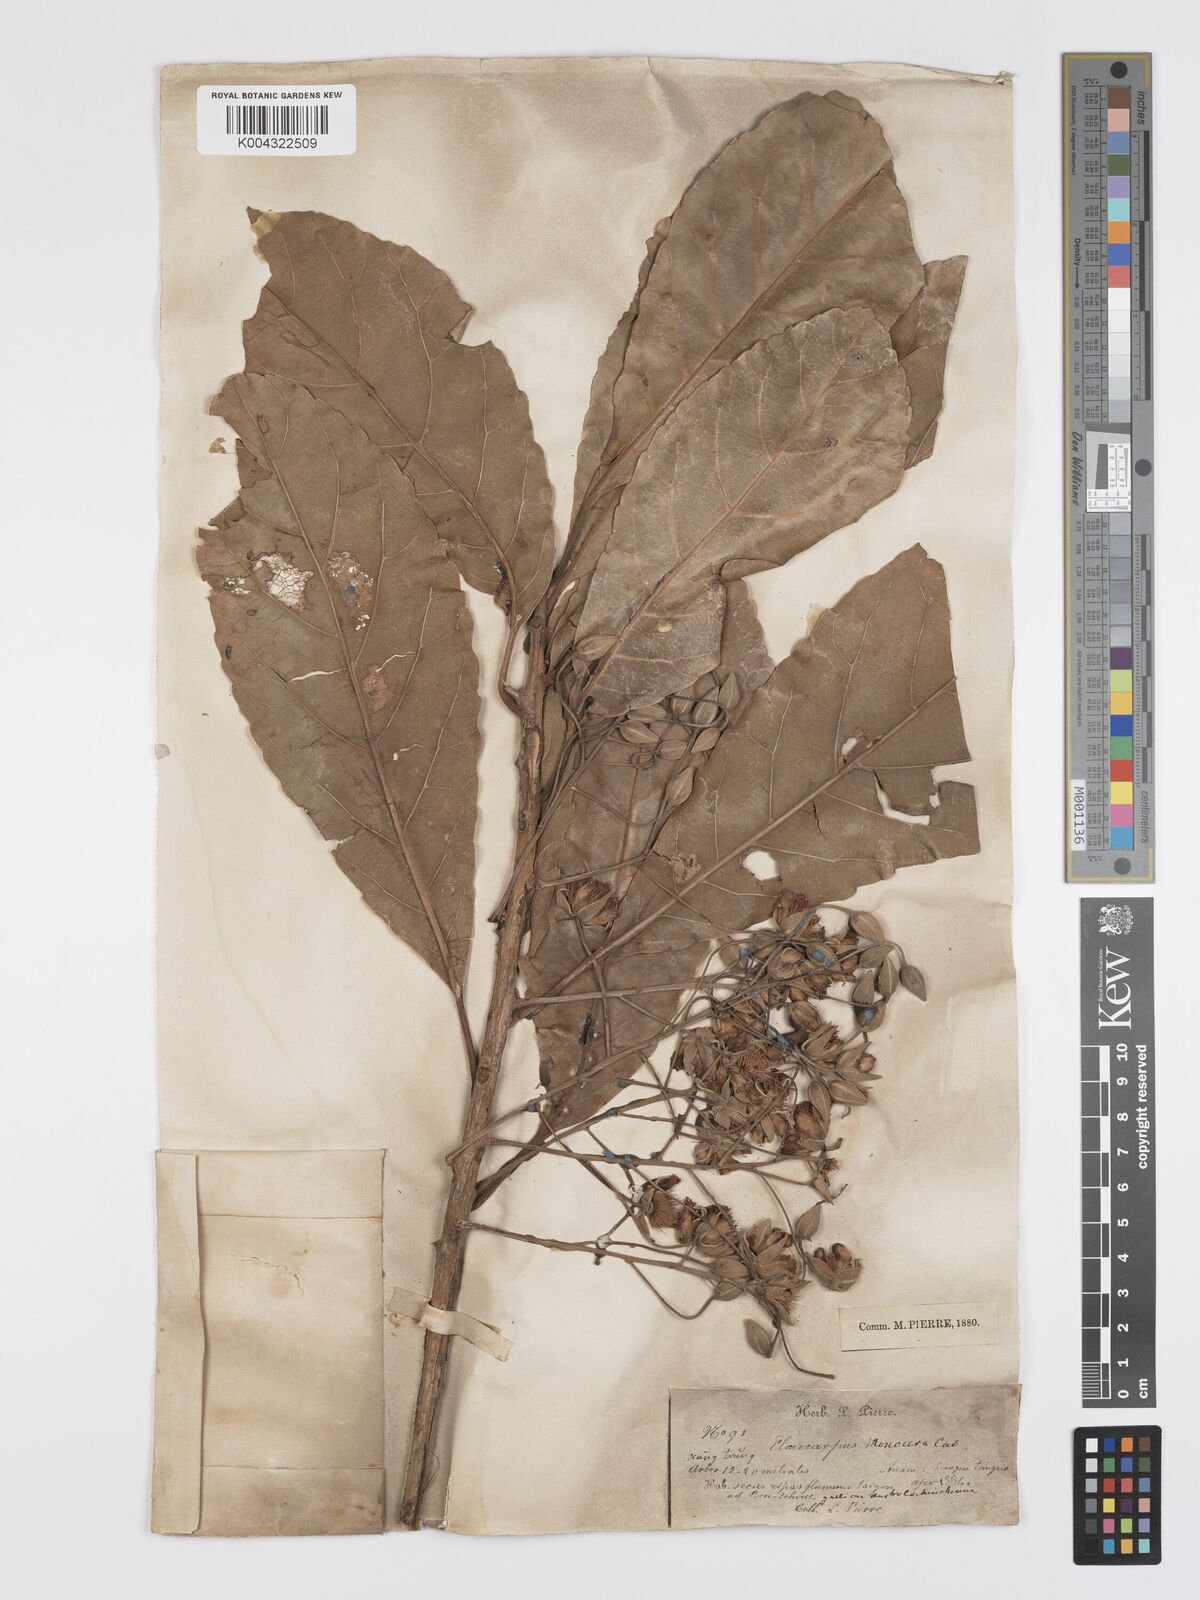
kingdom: Plantae
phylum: Tracheophyta
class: Magnoliopsida
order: Oxalidales
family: Elaeocarpaceae
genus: Elaeocarpus
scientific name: Elaeocarpus macrocerus
